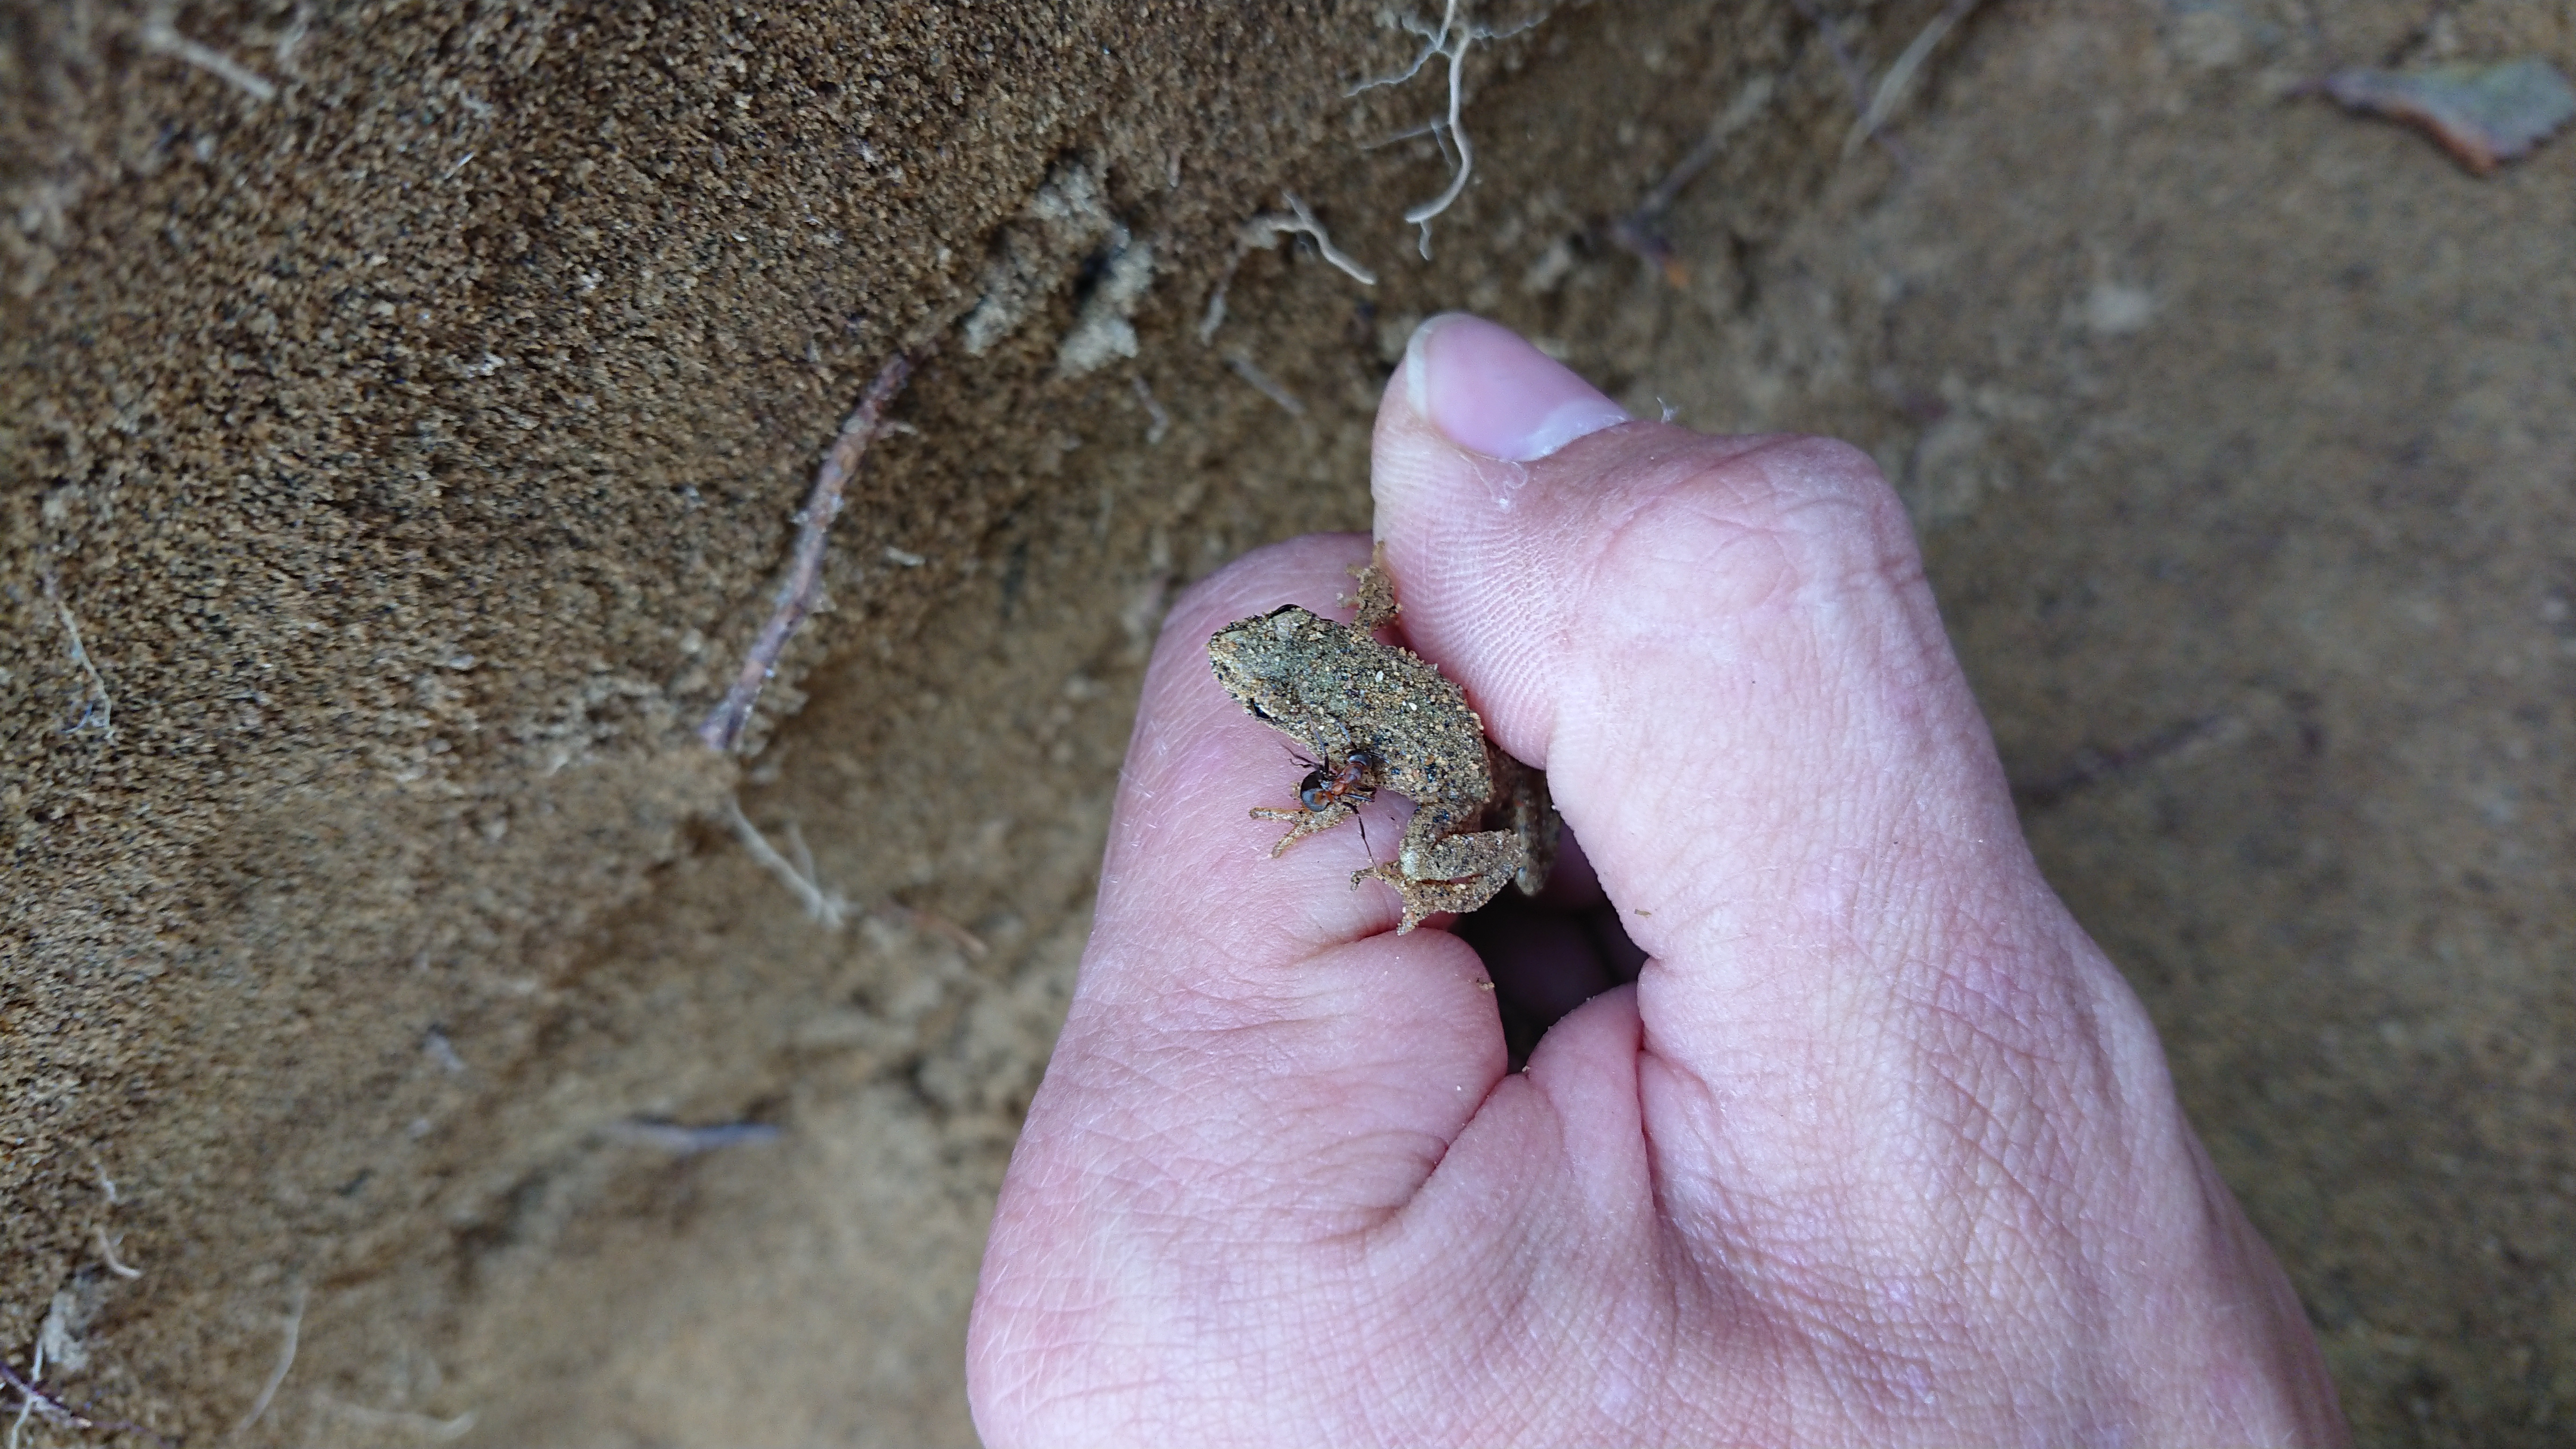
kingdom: Animalia
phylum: Chordata
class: Amphibia
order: Anura
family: Ranidae
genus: Rana
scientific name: Rana temporaria
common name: Common frog
